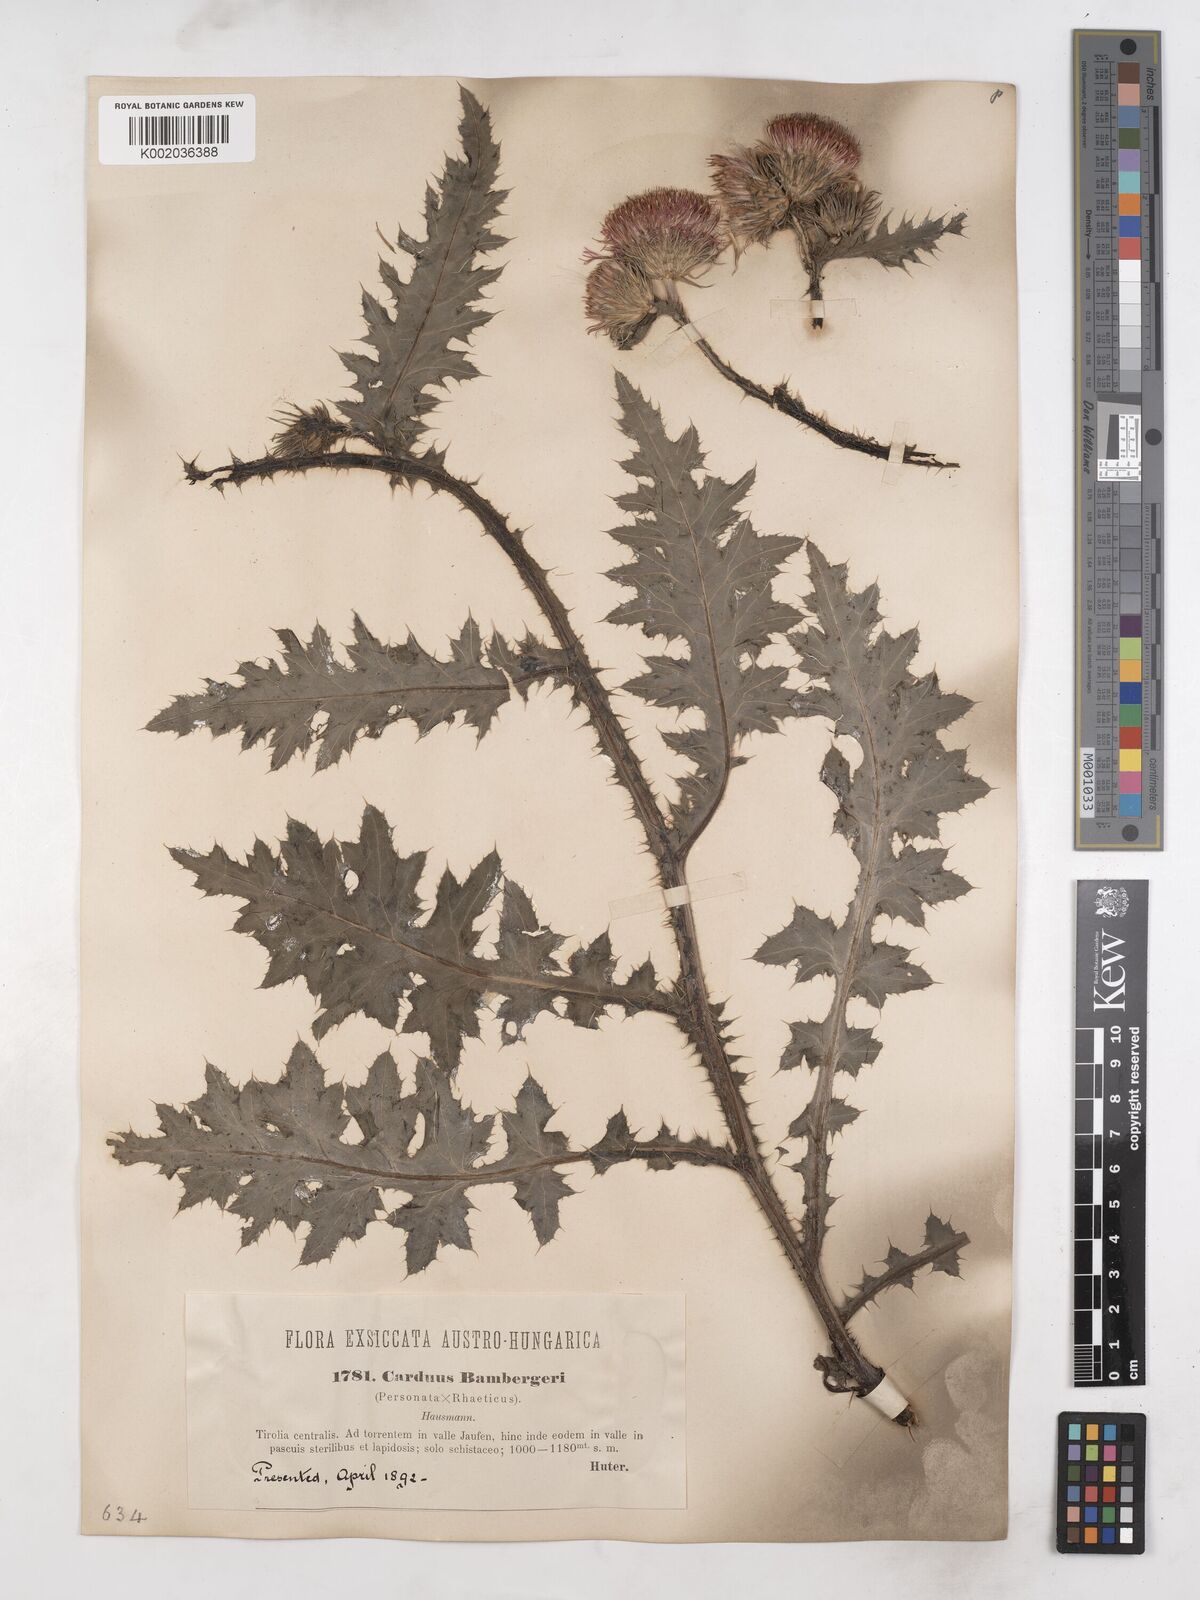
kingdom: Plantae
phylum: Tracheophyta
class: Magnoliopsida
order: Asterales
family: Asteraceae
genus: Carduus
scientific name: Carduus defloratus
